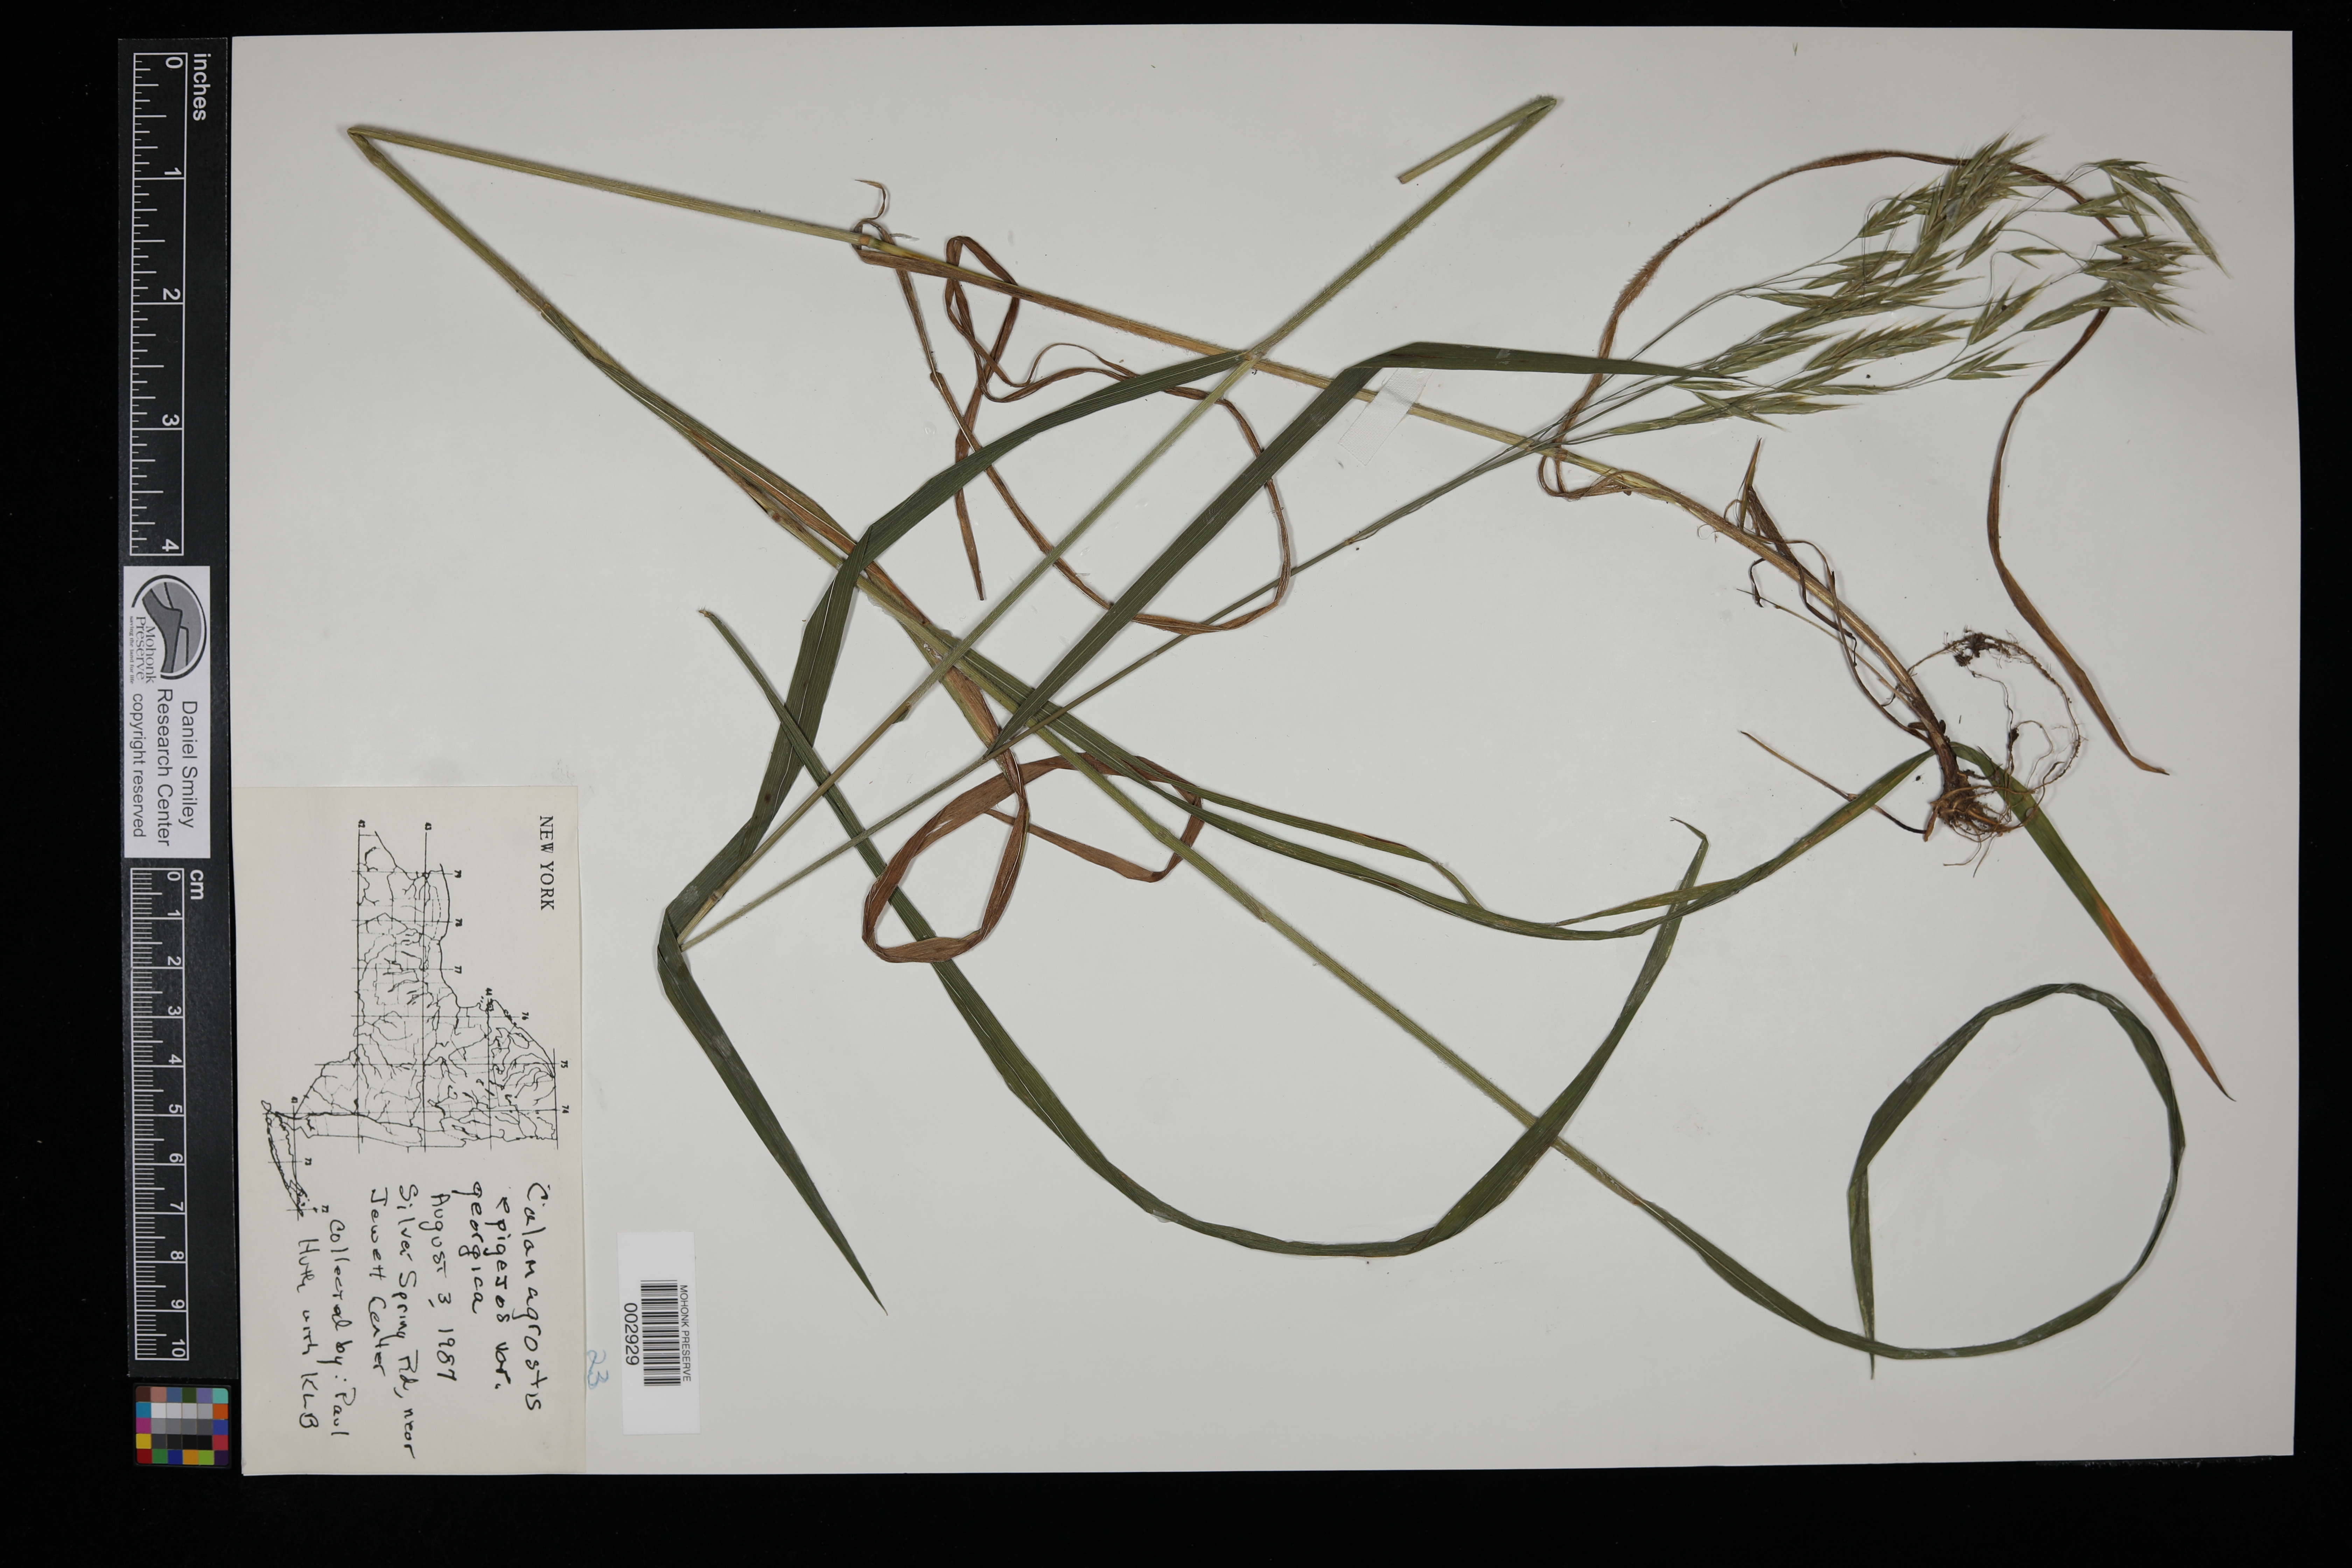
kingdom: Plantae
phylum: Tracheophyta
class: Liliopsida
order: Poales
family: Poaceae
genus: Calamagrostis
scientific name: Calamagrostis epigejos
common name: Wood small-reed
